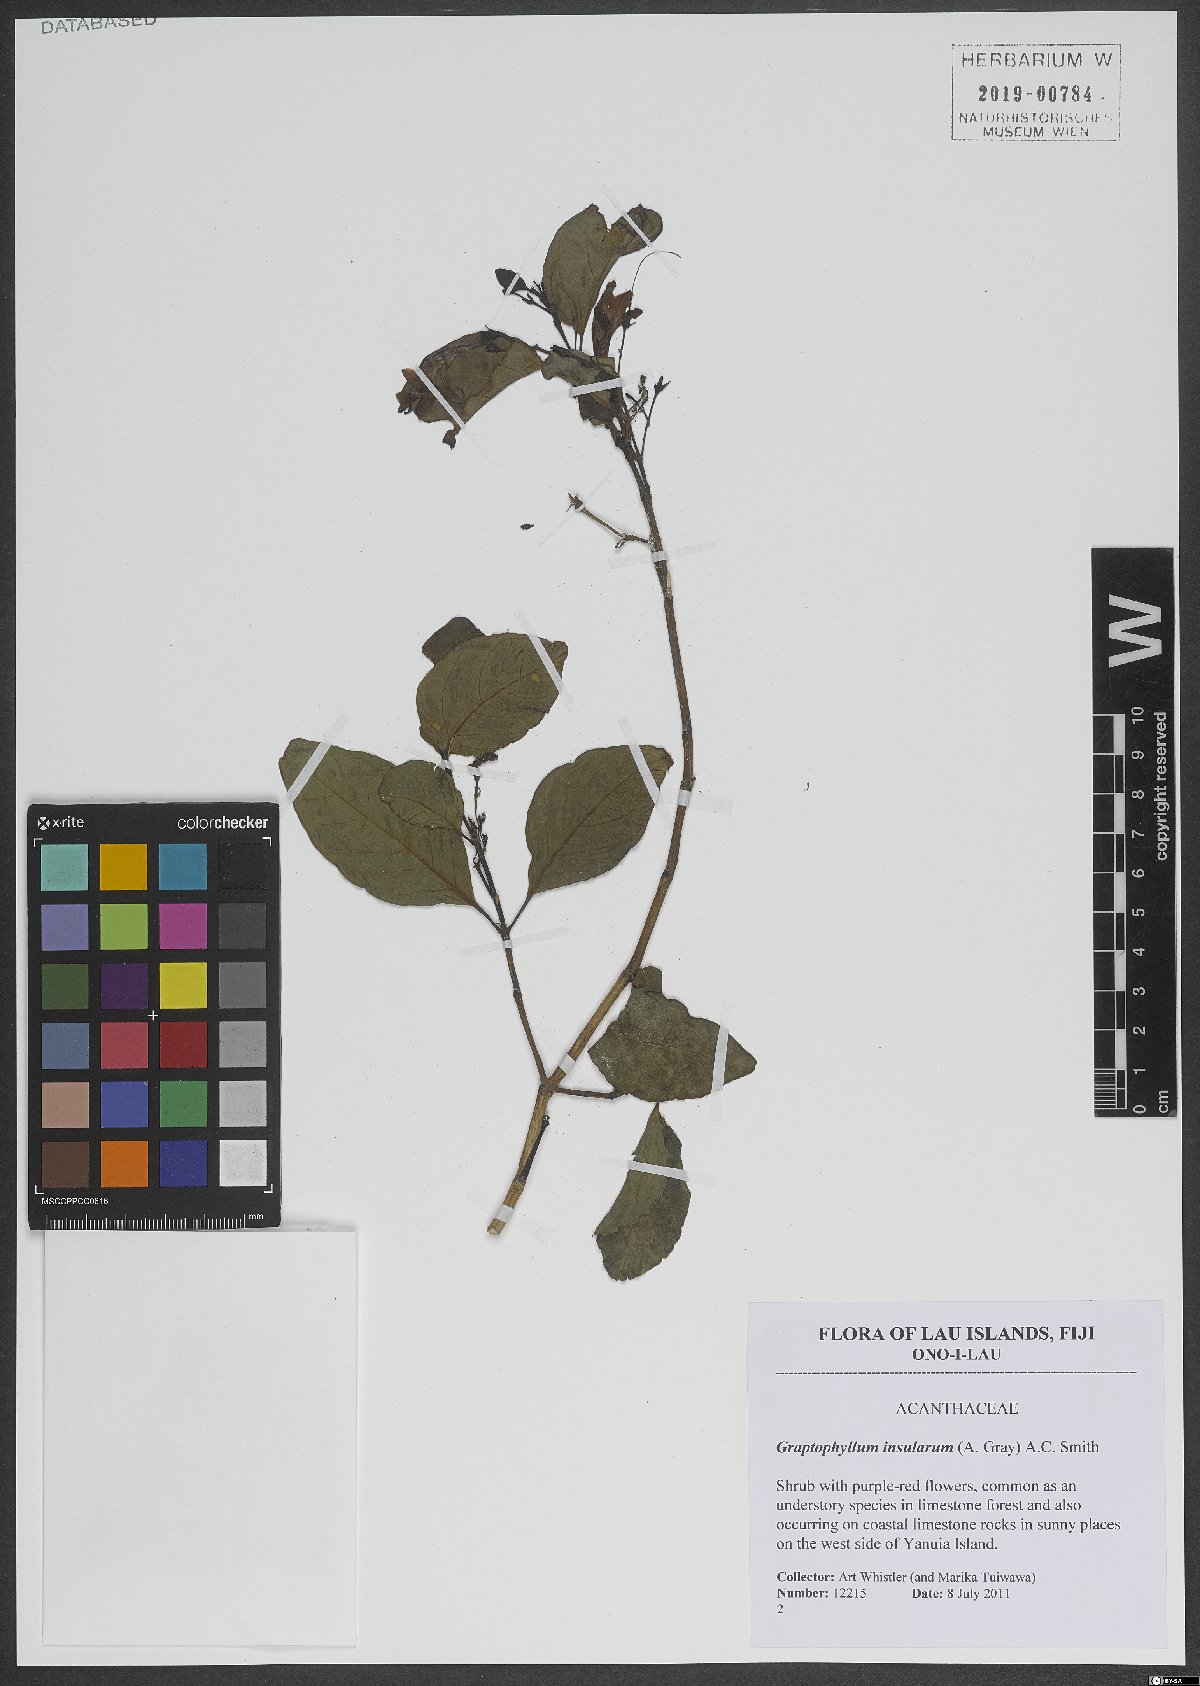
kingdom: Plantae
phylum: Tracheophyta
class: Magnoliopsida
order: Lamiales
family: Acanthaceae
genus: Graptophyllum
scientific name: Graptophyllum insularum
